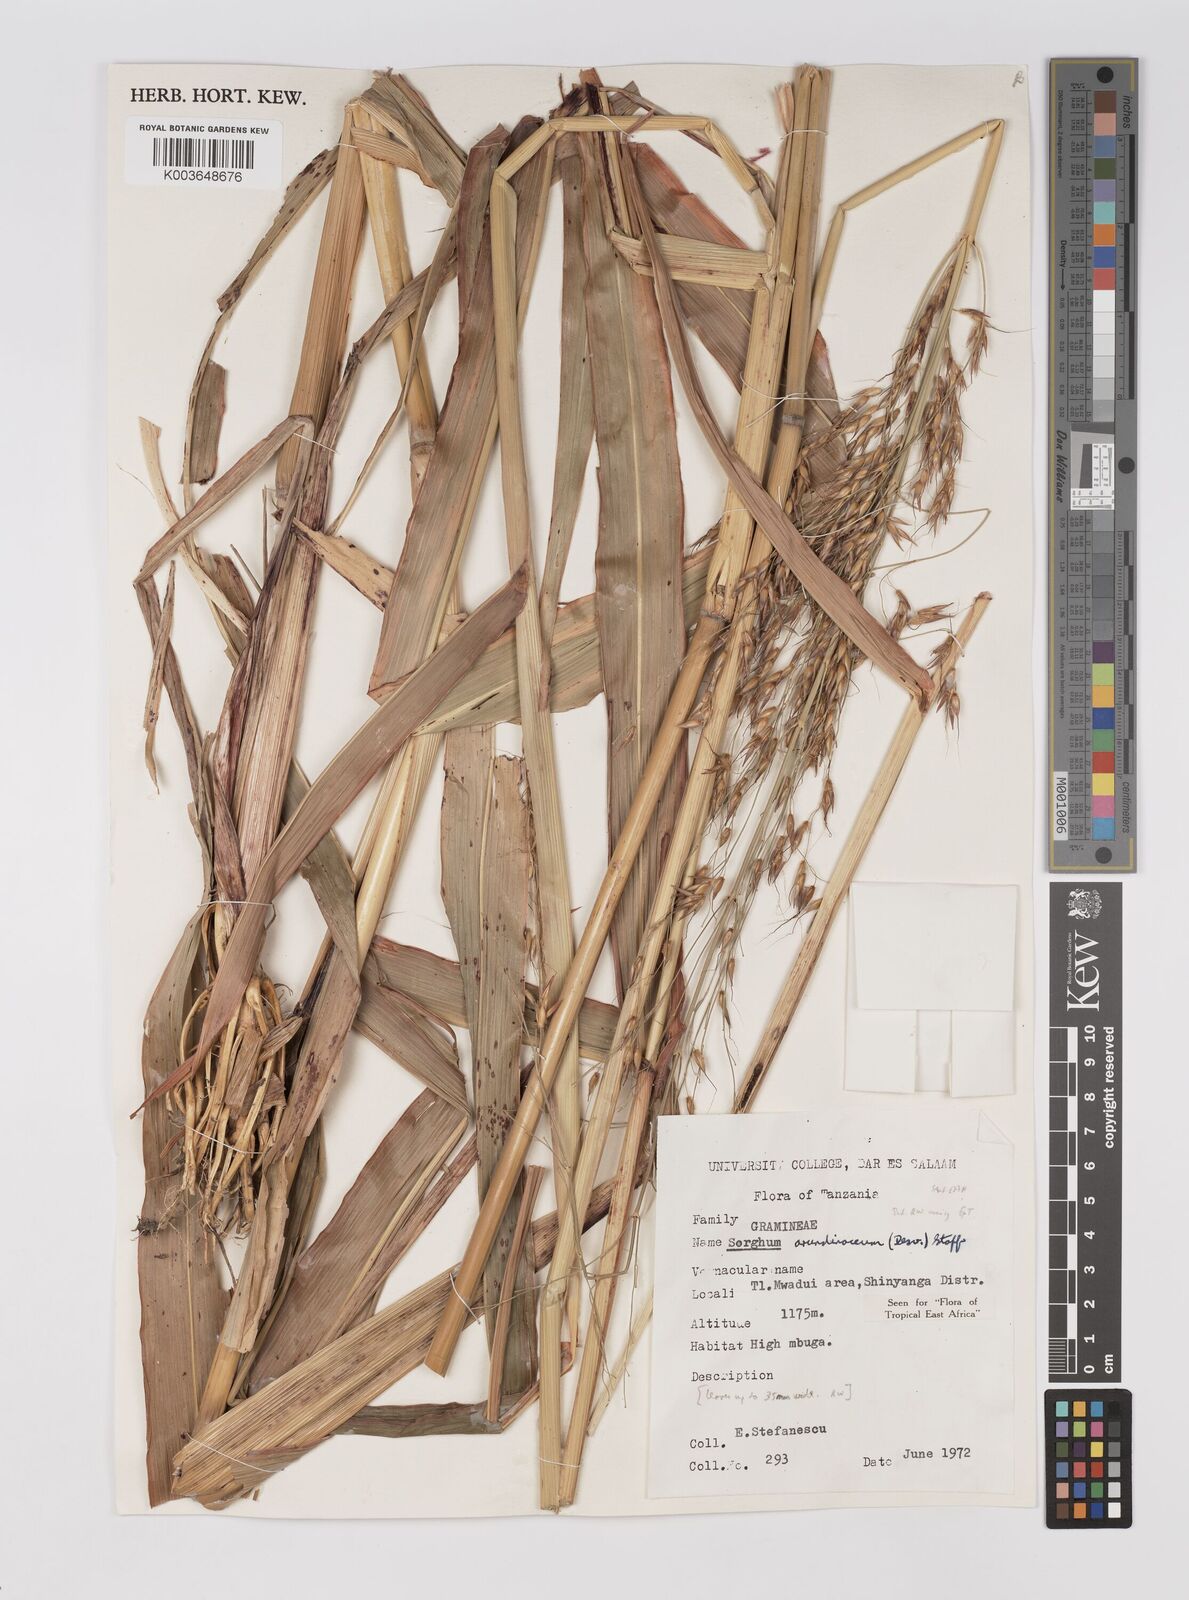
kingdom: Plantae
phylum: Tracheophyta
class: Liliopsida
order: Poales
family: Poaceae
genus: Sorghum
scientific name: Sorghum arundinaceum
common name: Sorghum
